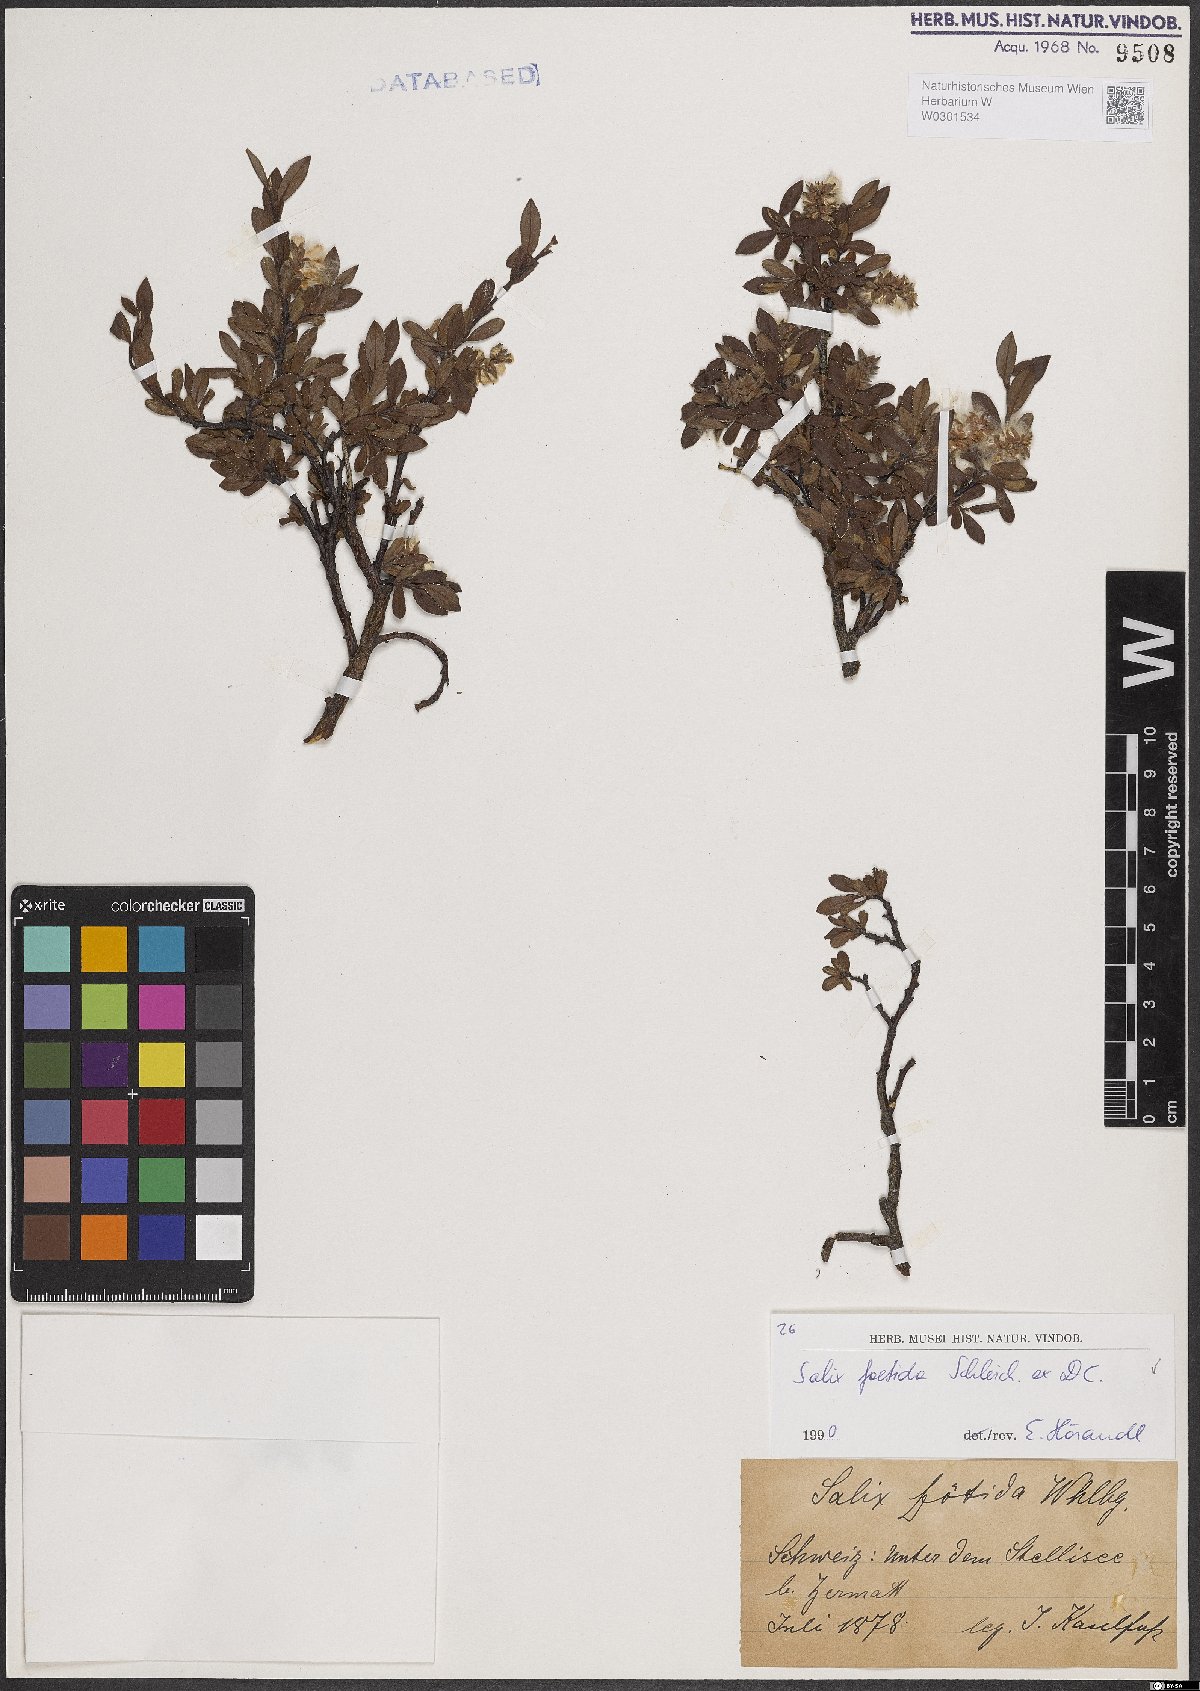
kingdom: Plantae
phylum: Tracheophyta
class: Magnoliopsida
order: Malpighiales
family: Salicaceae
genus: Salix
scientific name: Salix foetida
